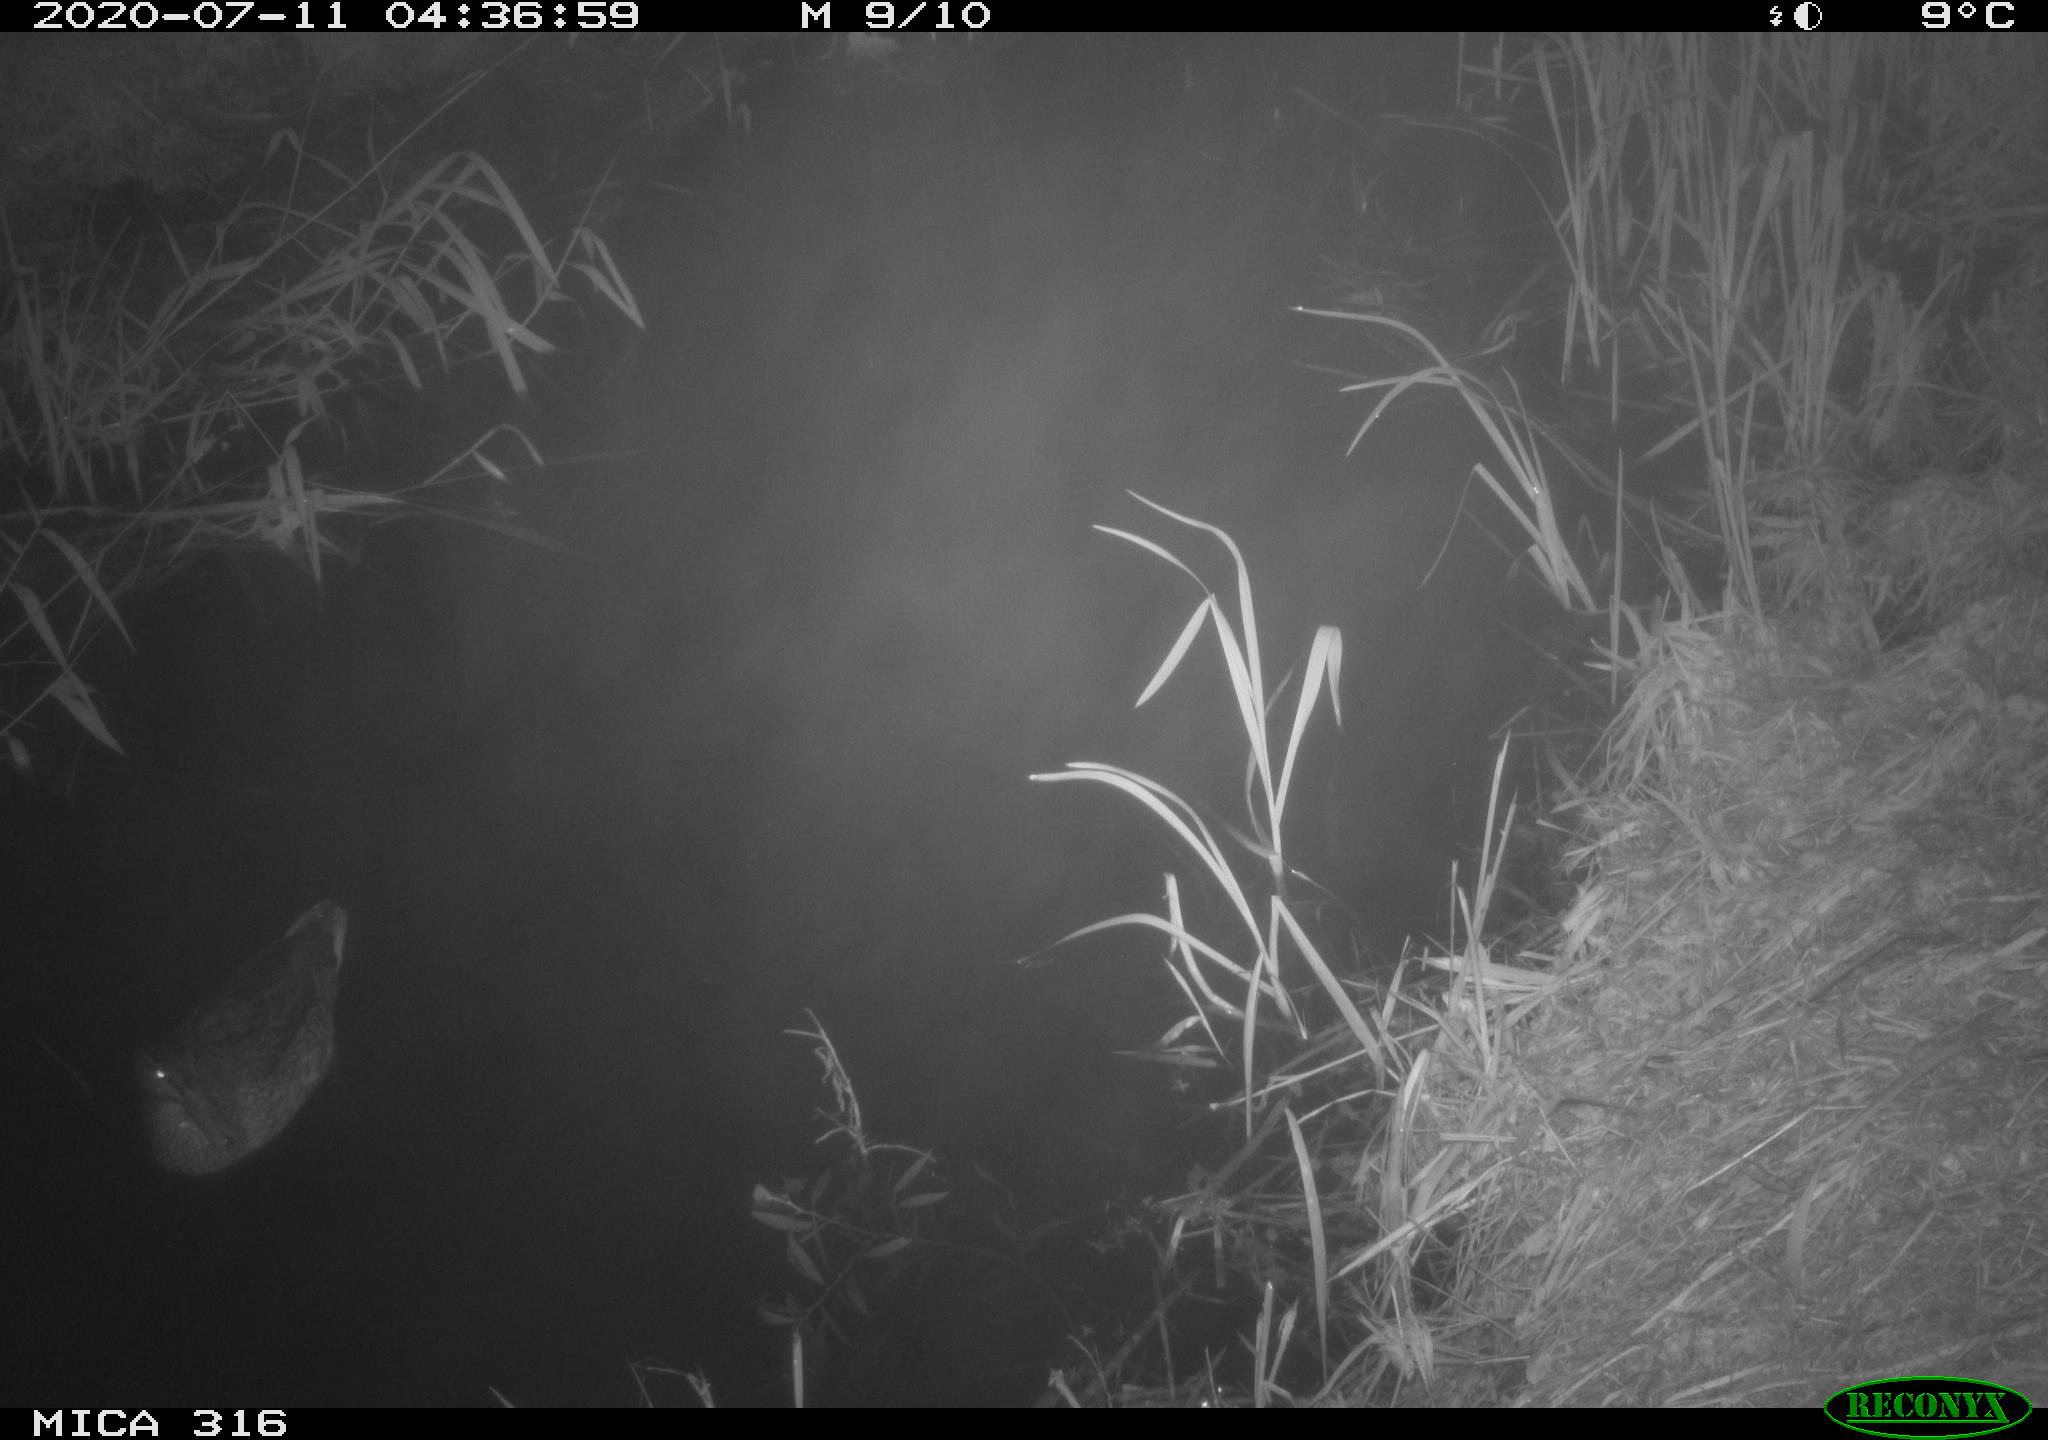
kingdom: Animalia
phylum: Chordata
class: Aves
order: Anseriformes
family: Anatidae
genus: Anas
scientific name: Anas platyrhynchos
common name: Mallard
